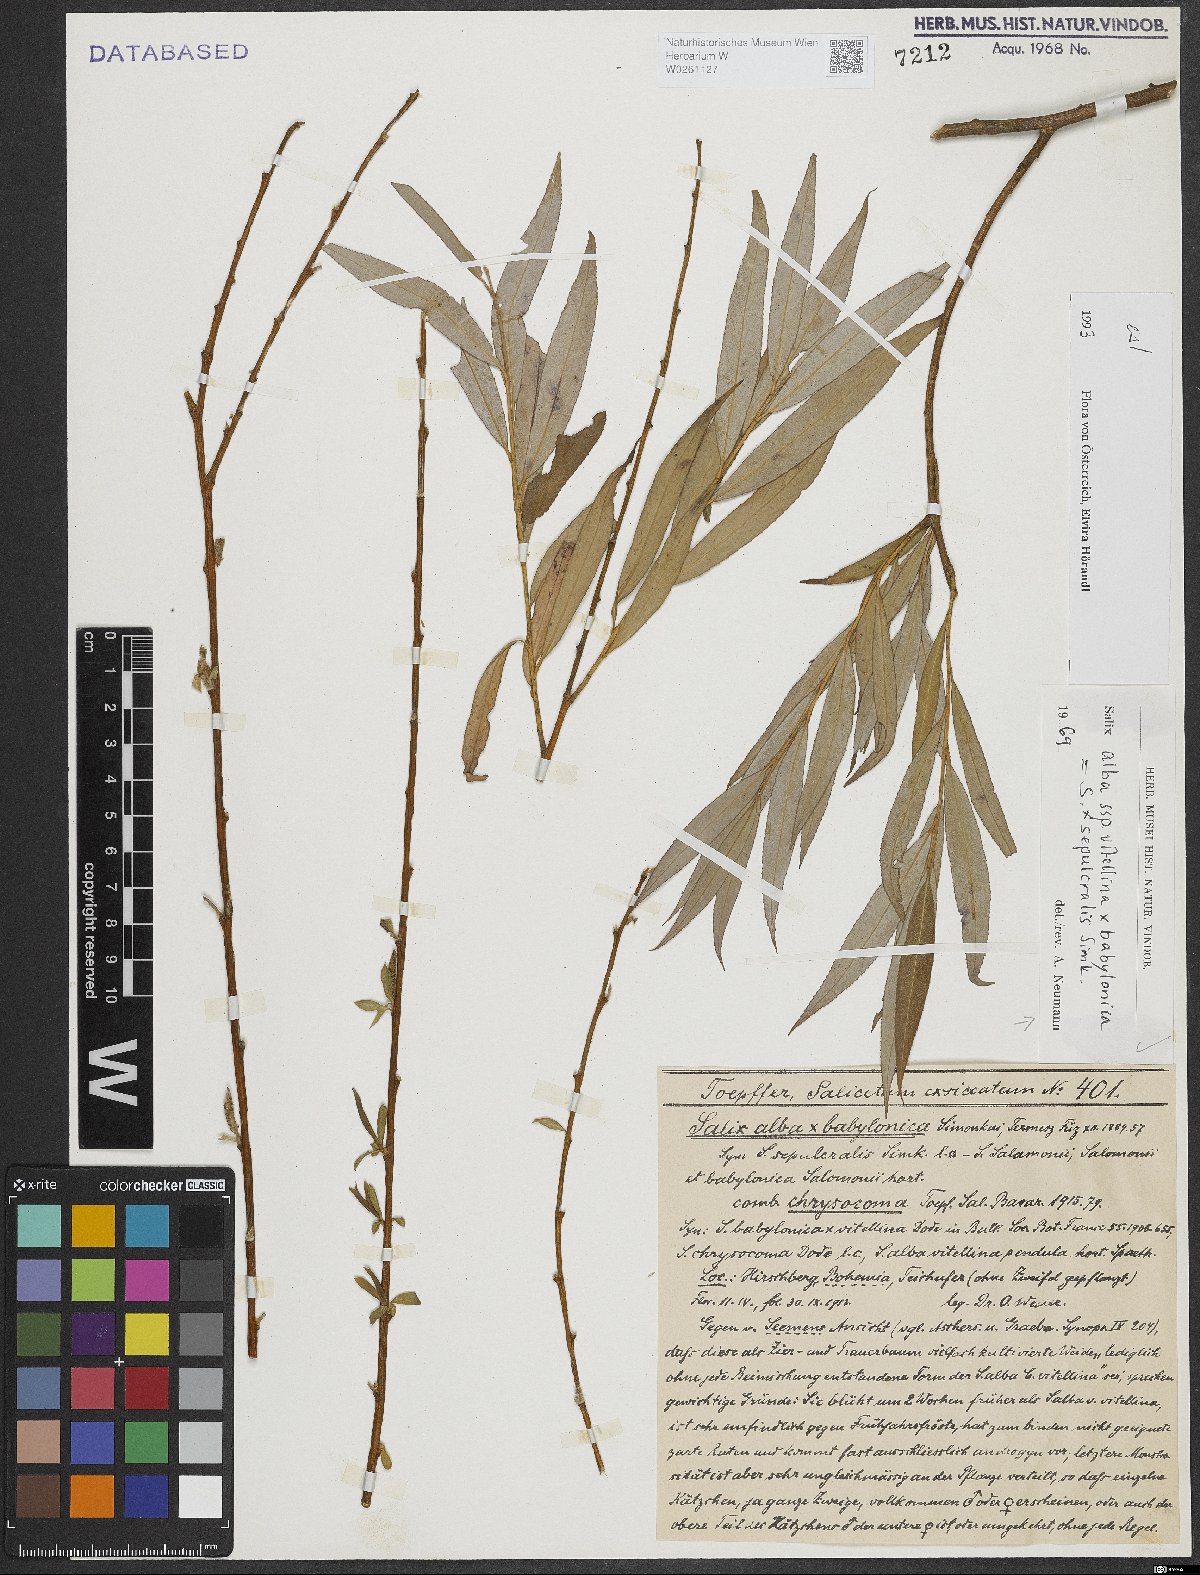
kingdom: Plantae
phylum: Tracheophyta
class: Magnoliopsida
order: Malpighiales
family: Salicaceae
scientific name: Salicaceae
